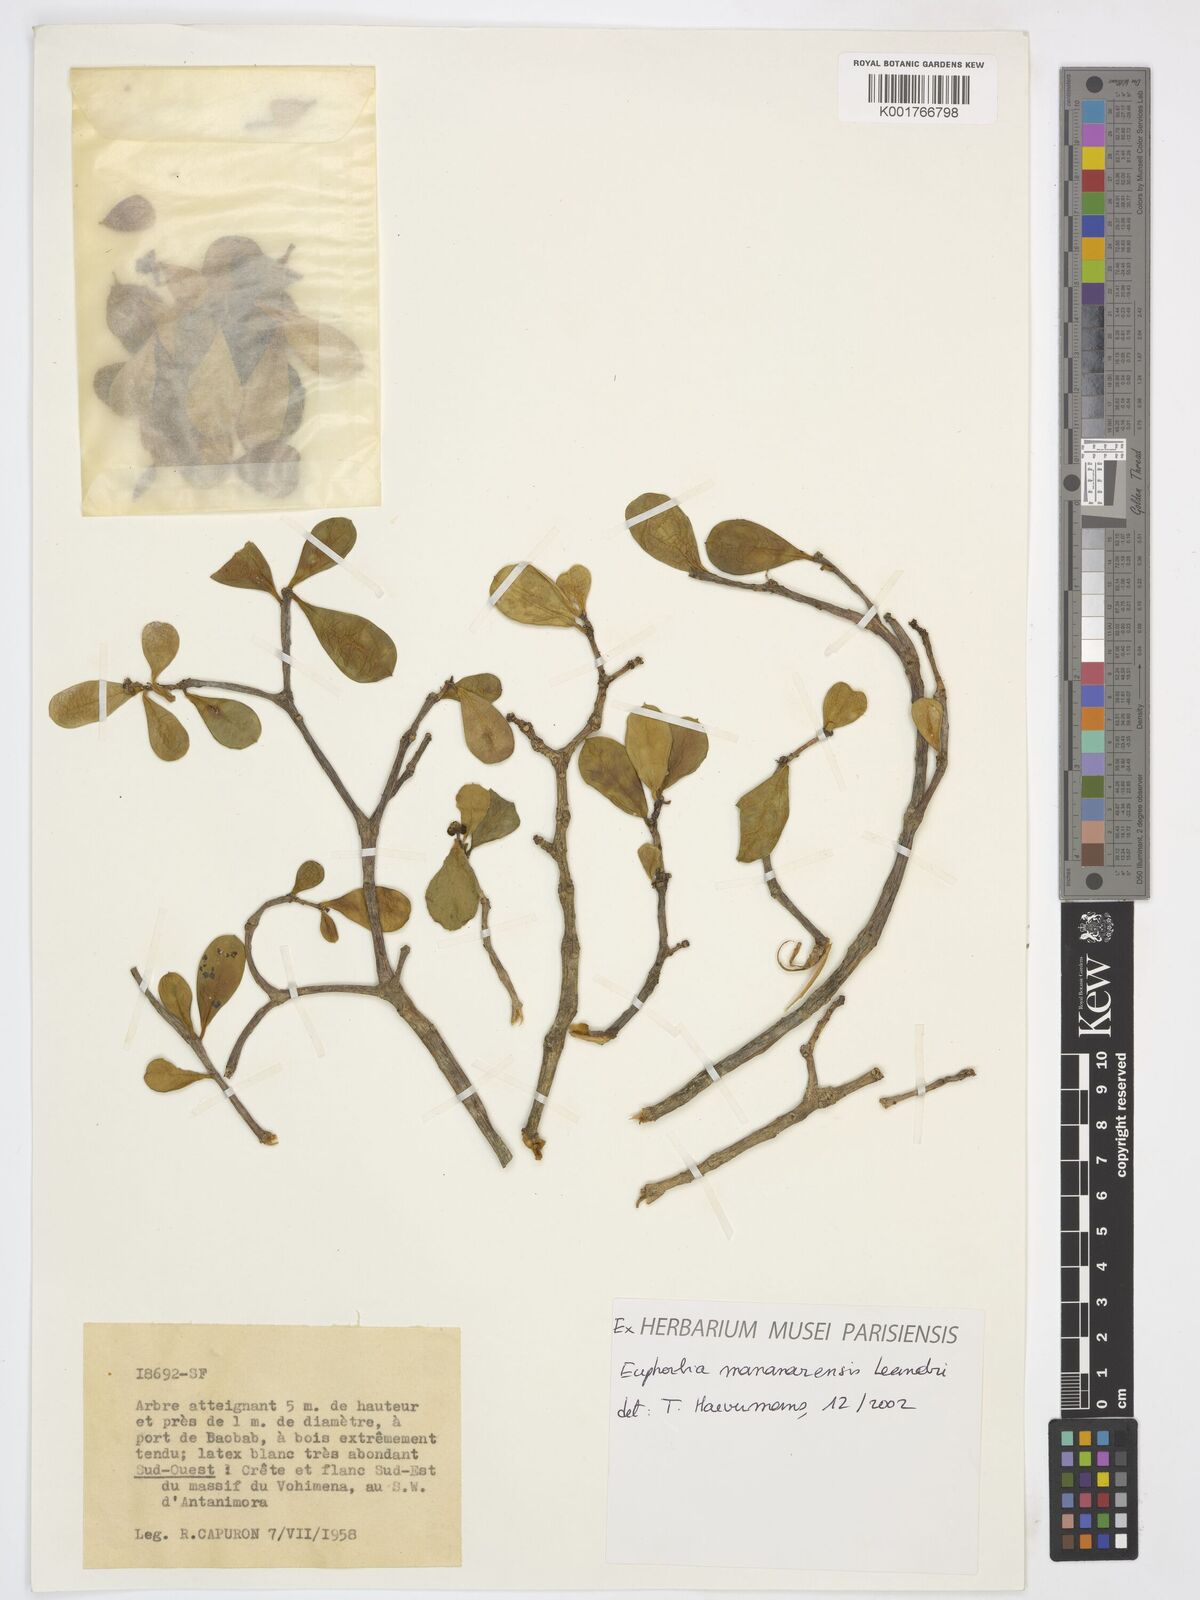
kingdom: Plantae
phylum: Tracheophyta
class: Magnoliopsida
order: Malpighiales
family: Euphorbiaceae
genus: Euphorbia
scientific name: Euphorbia mananarensis
